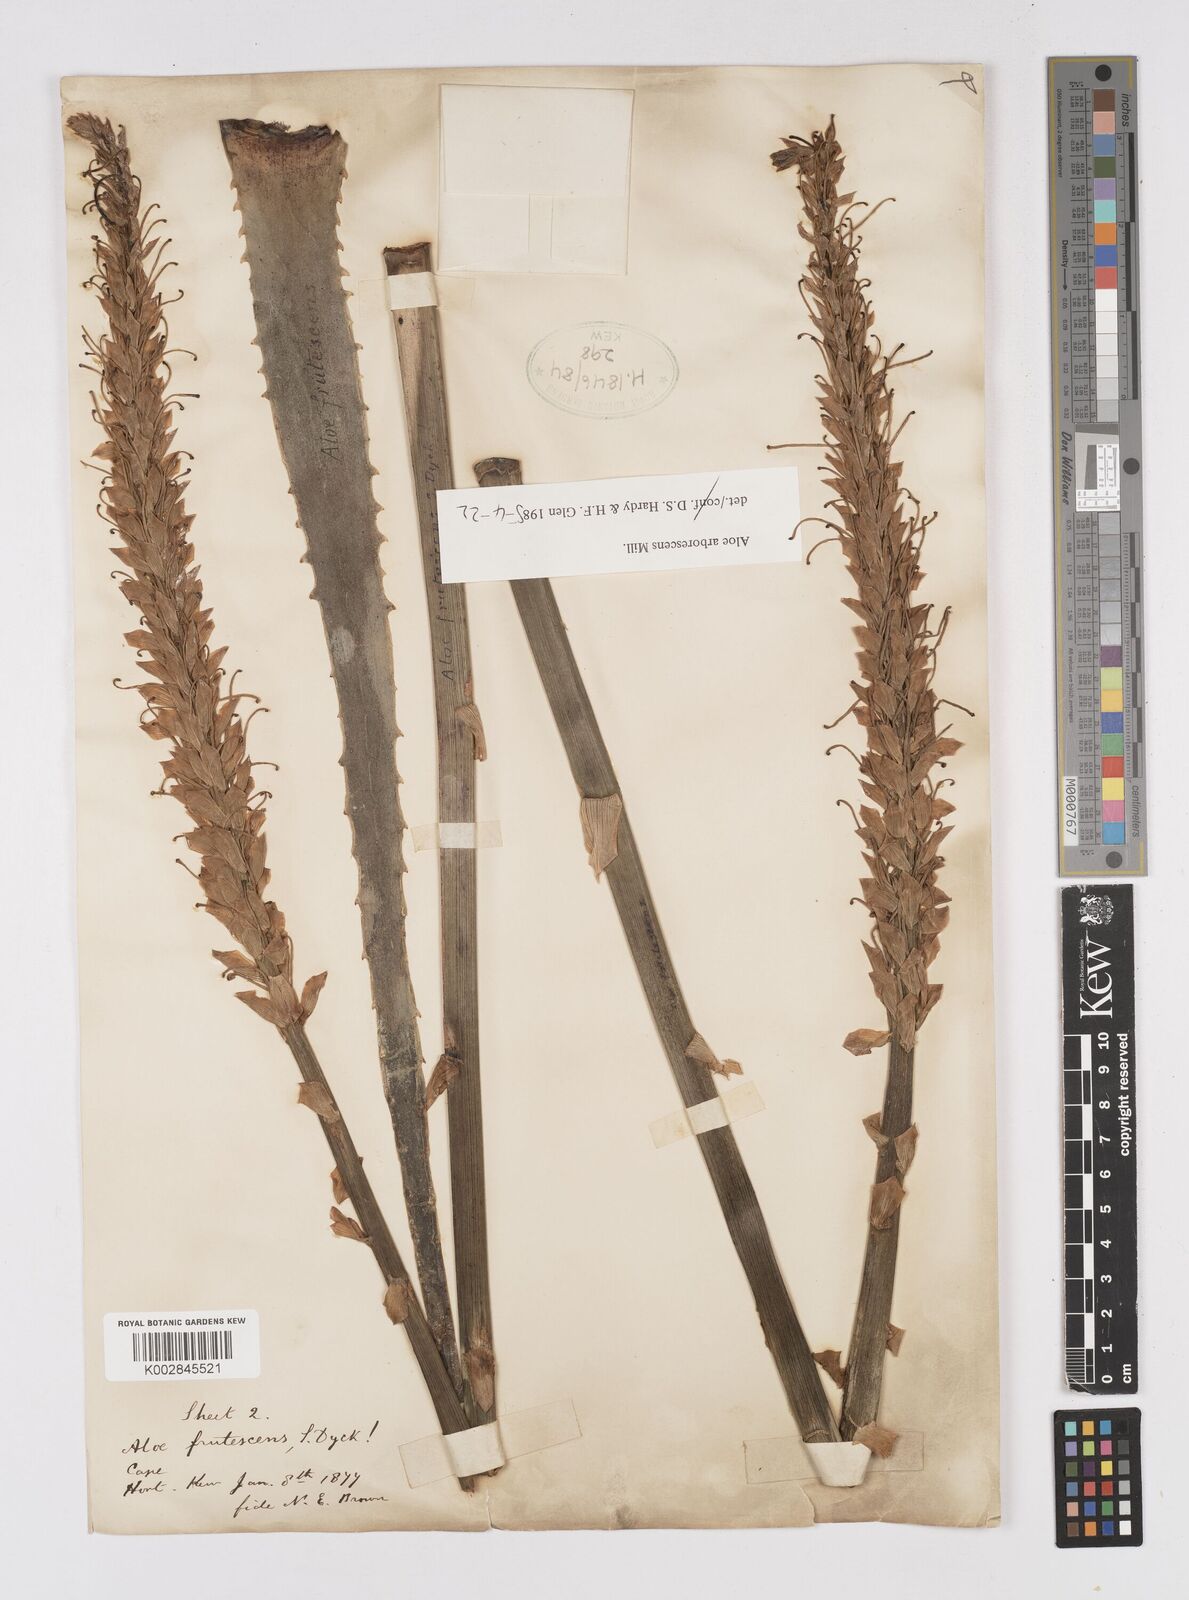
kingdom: Plantae
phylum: Tracheophyta
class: Liliopsida
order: Asparagales
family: Asphodelaceae
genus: Aloe
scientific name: Aloe arborescens
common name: Candelabra aloe
